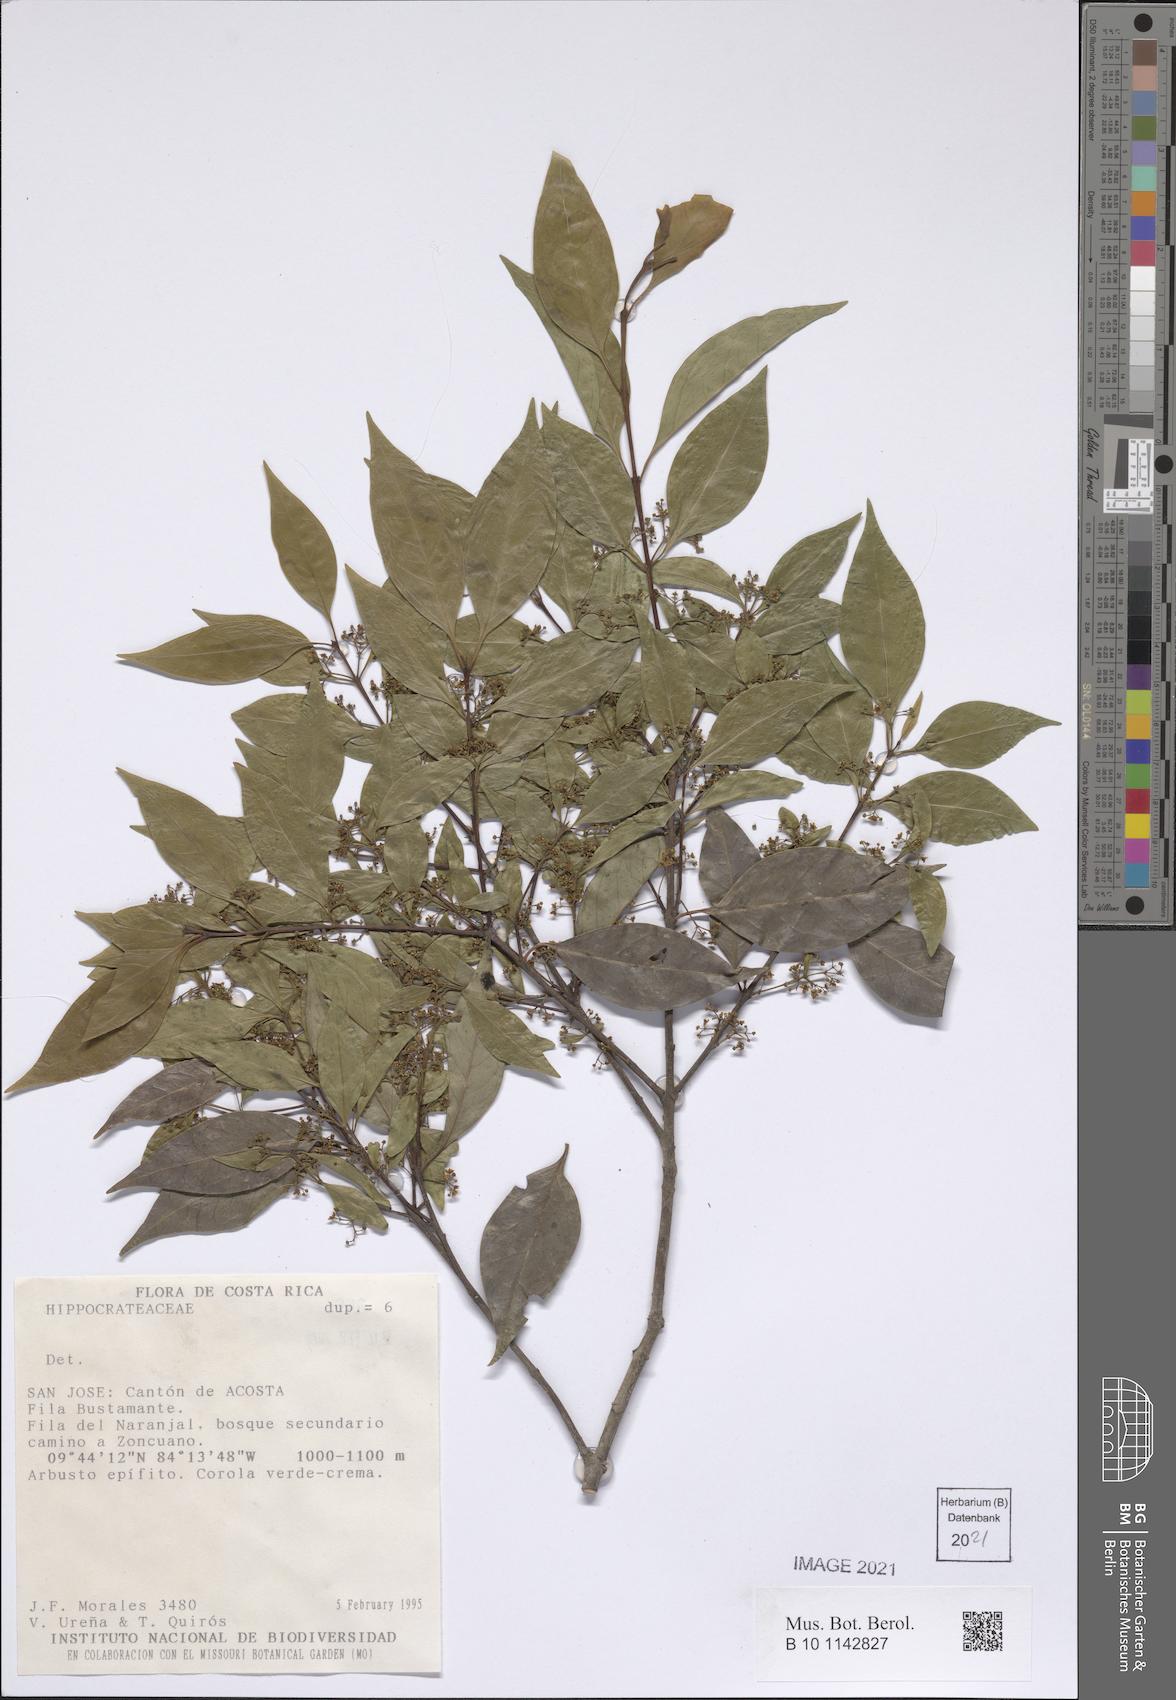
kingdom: Plantae
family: Hippocrateaceae
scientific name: Hippocrateaceae
